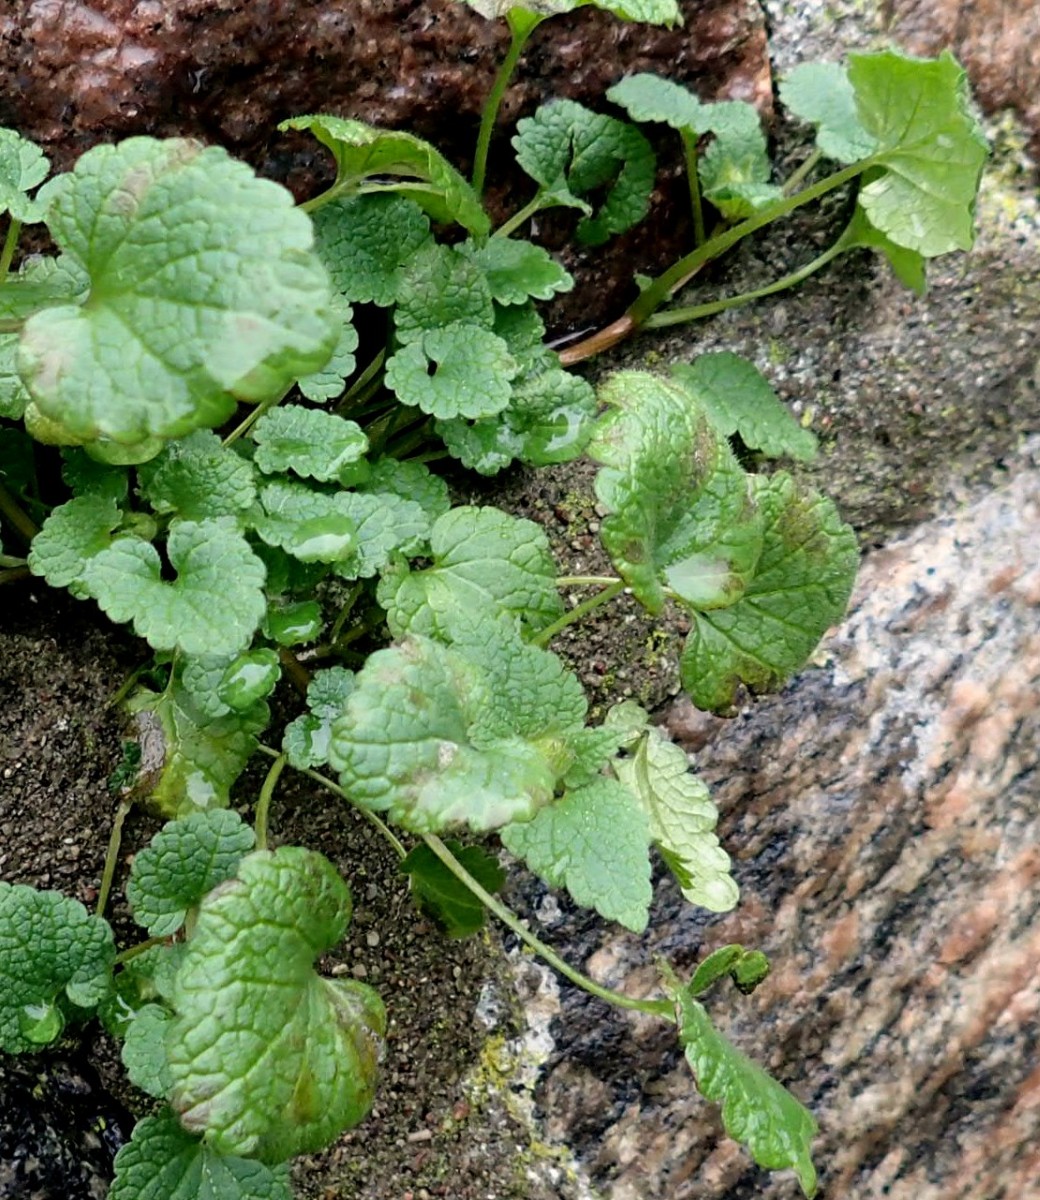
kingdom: Fungi
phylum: Ascomycota
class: Dothideomycetes
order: Mycosphaerellales
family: Mycosphaerellaceae
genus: Ramularia
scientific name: Ramularia lamii
